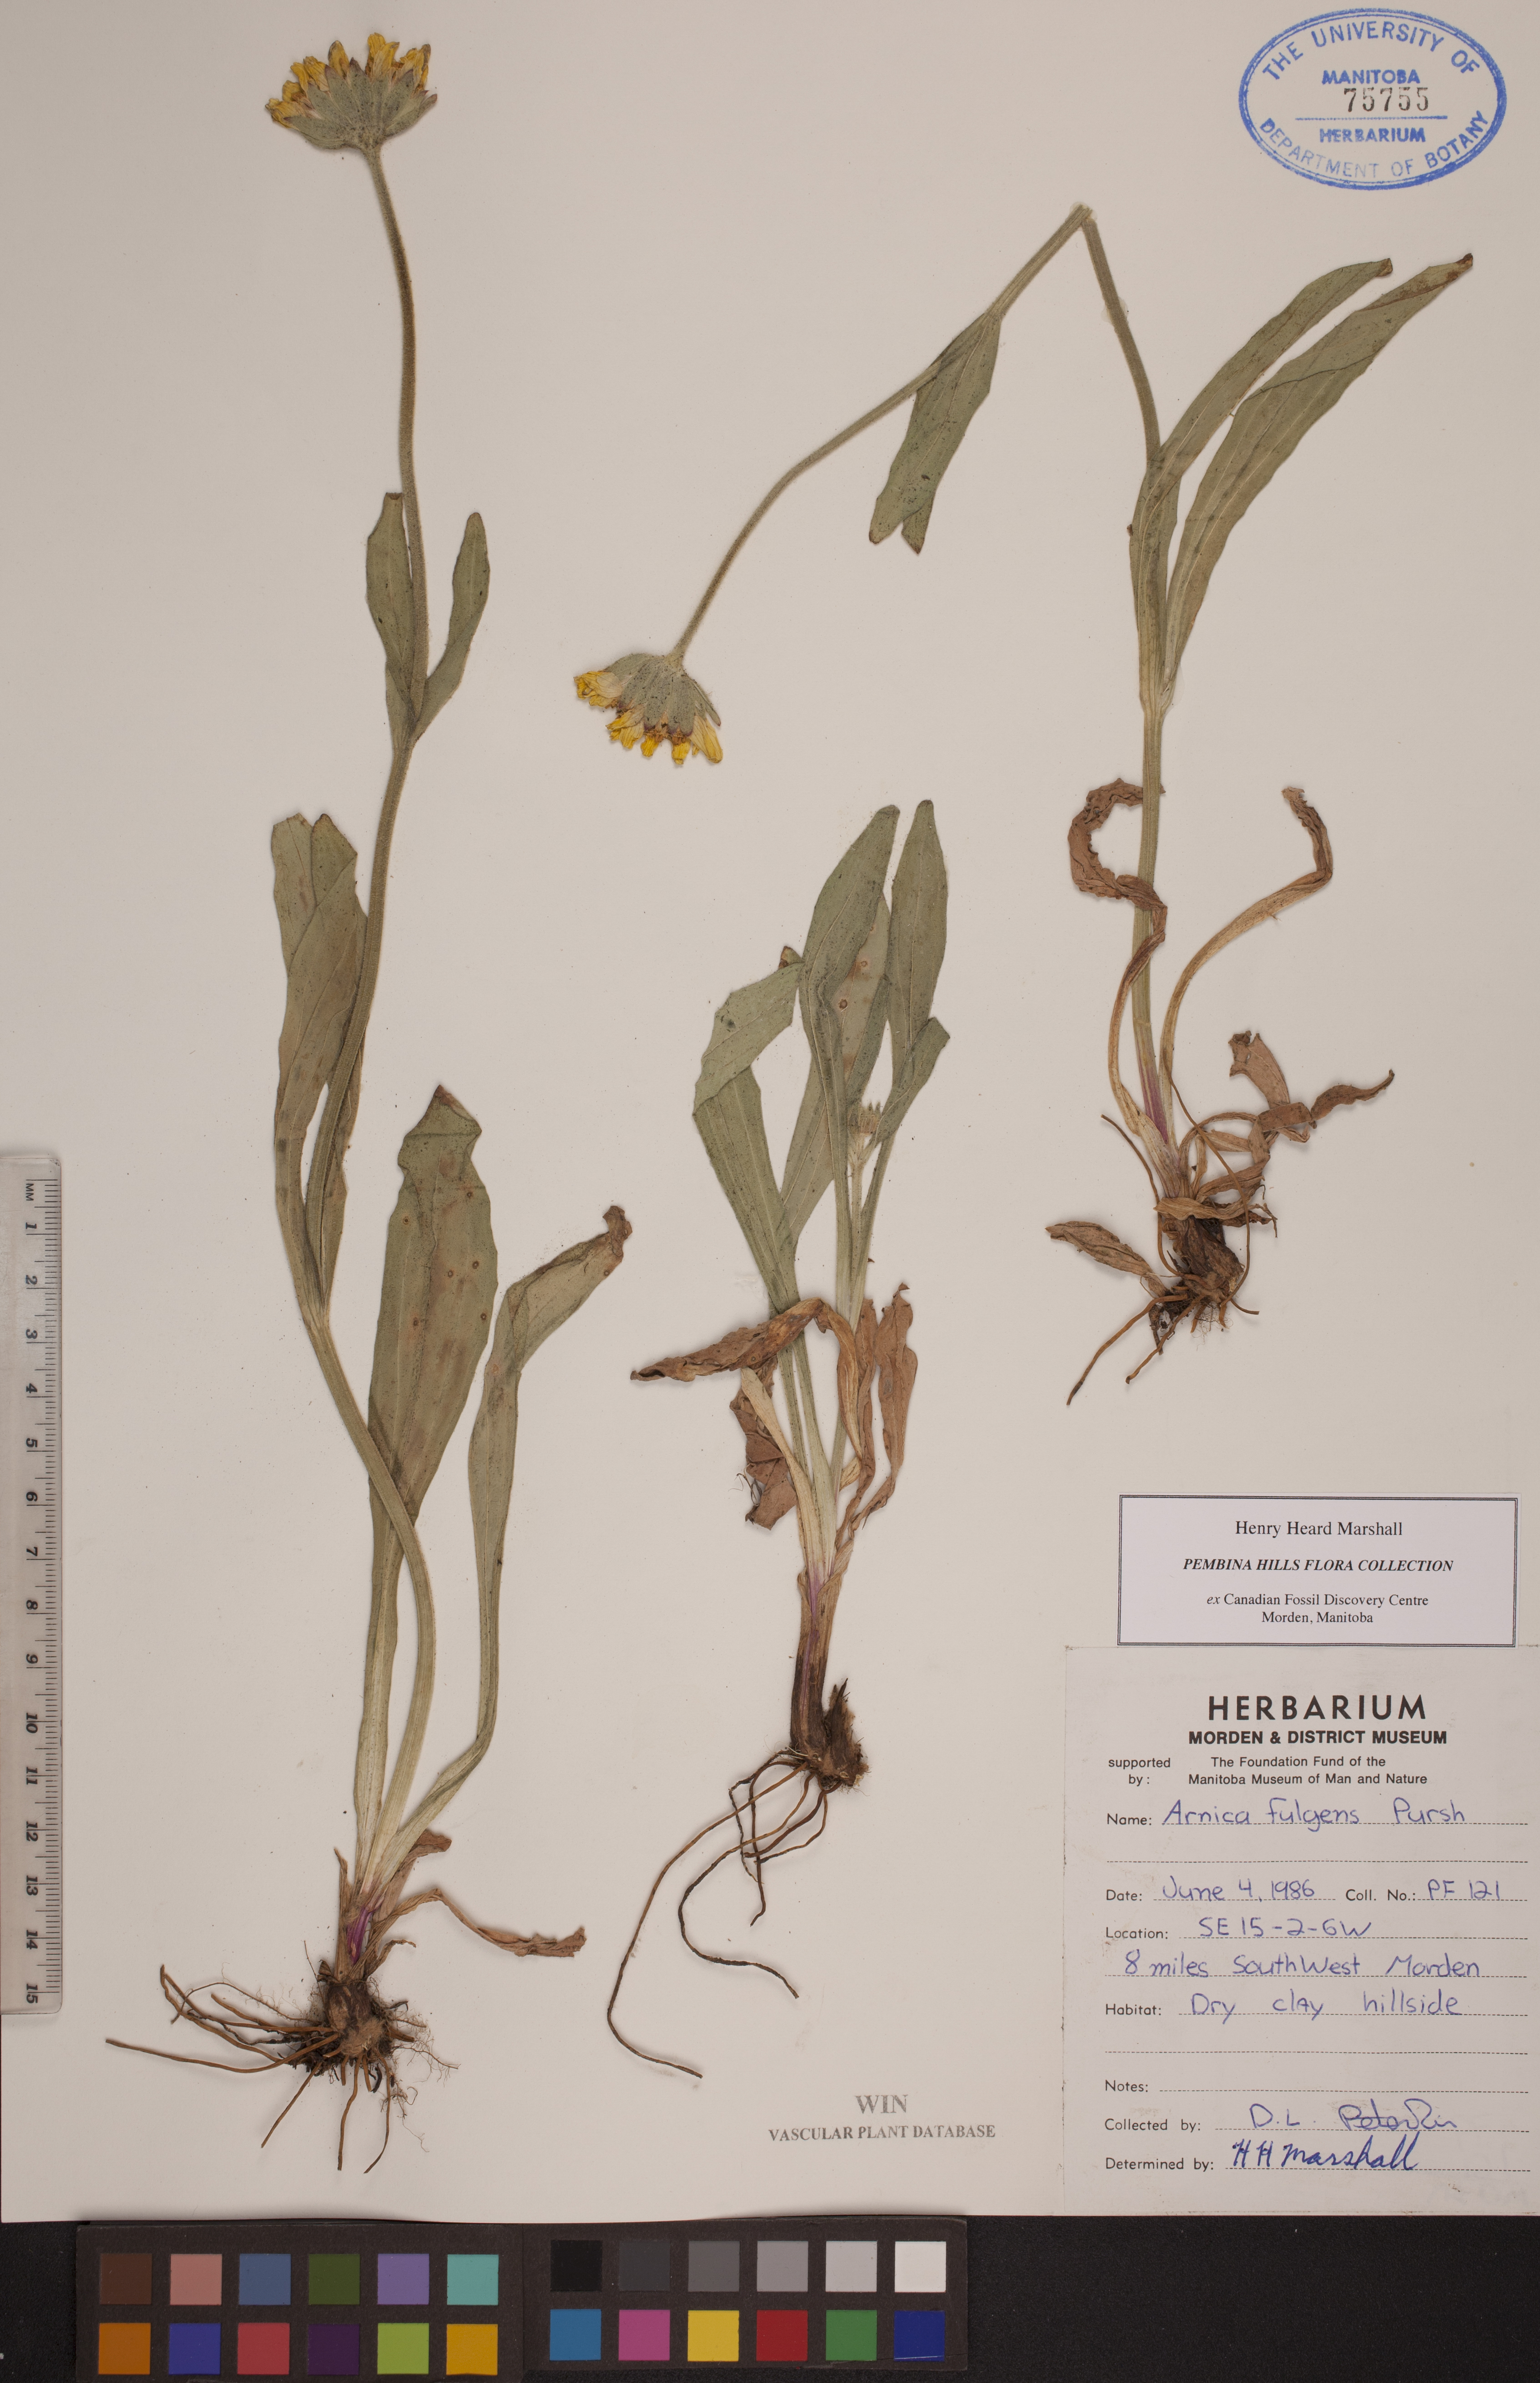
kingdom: Plantae
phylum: Tracheophyta
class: Magnoliopsida
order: Asterales
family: Asteraceae
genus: Arnica
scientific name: Arnica fulgens
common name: Foothill arnica
